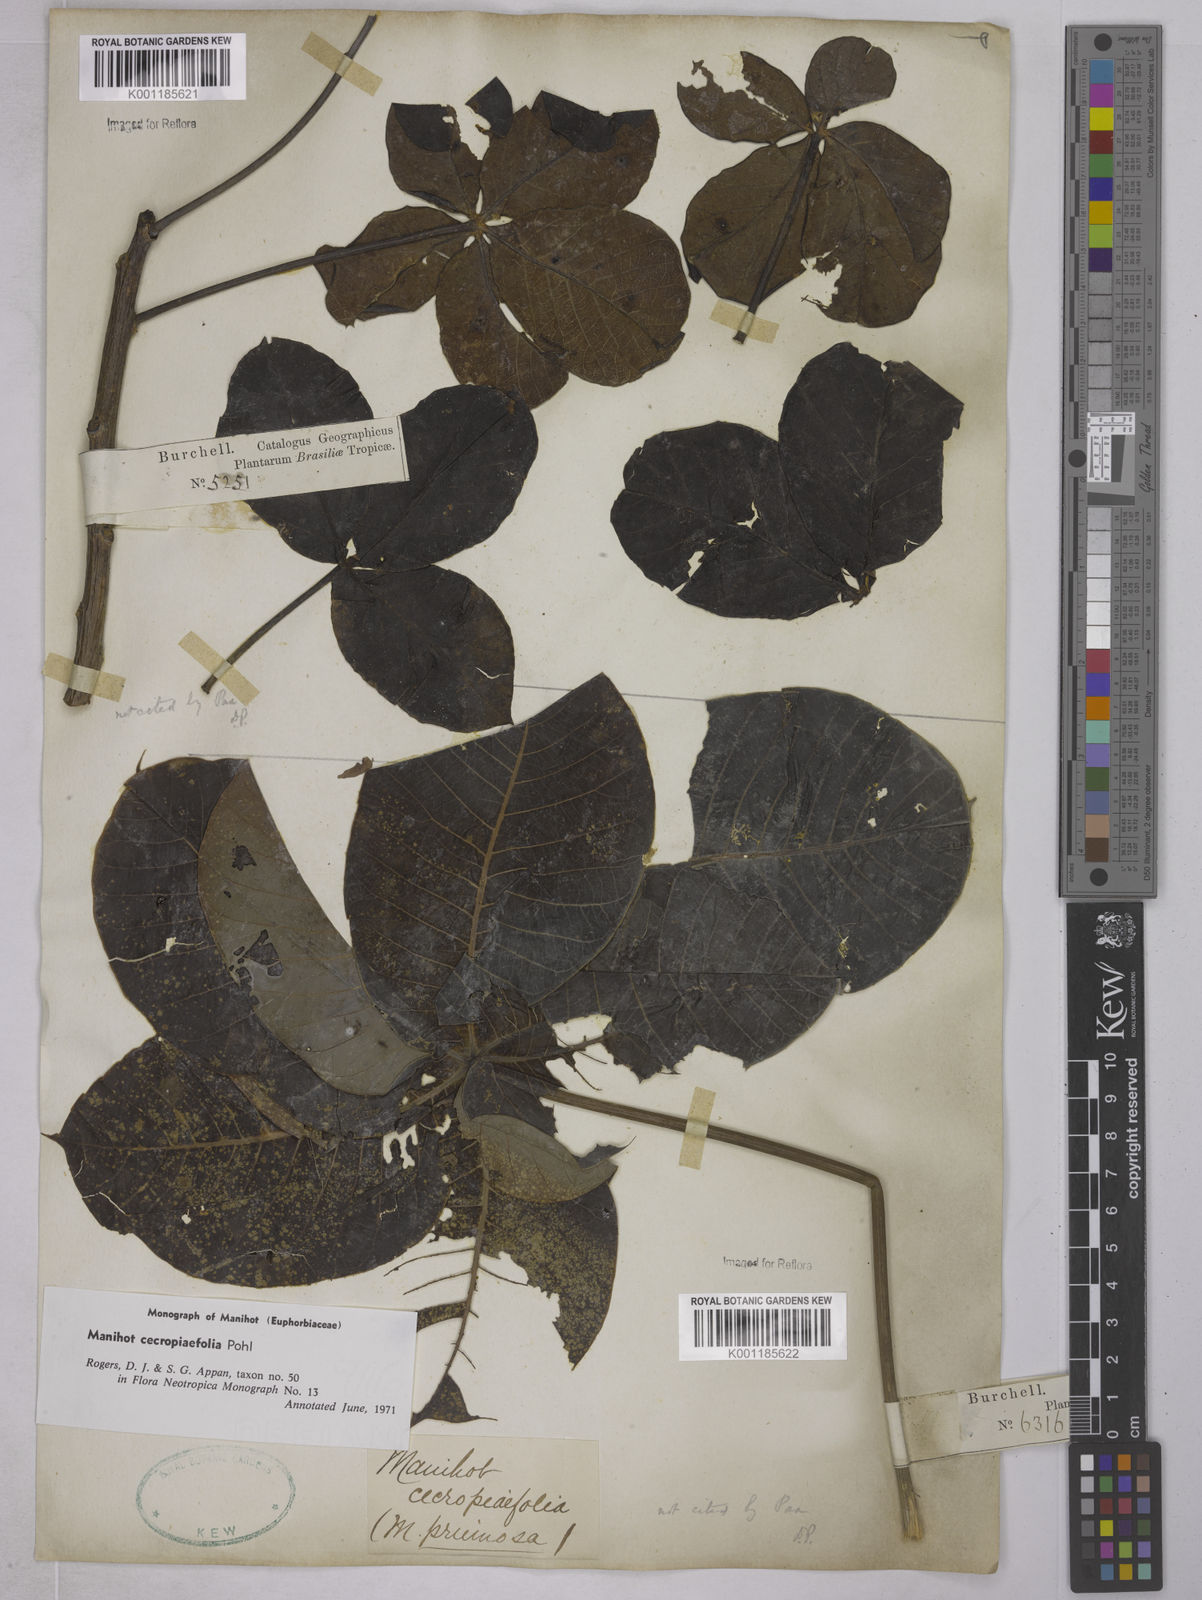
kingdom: Plantae
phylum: Tracheophyta
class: Magnoliopsida
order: Malpighiales
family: Euphorbiaceae
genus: Manihot
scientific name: Manihot cecropiifolia
